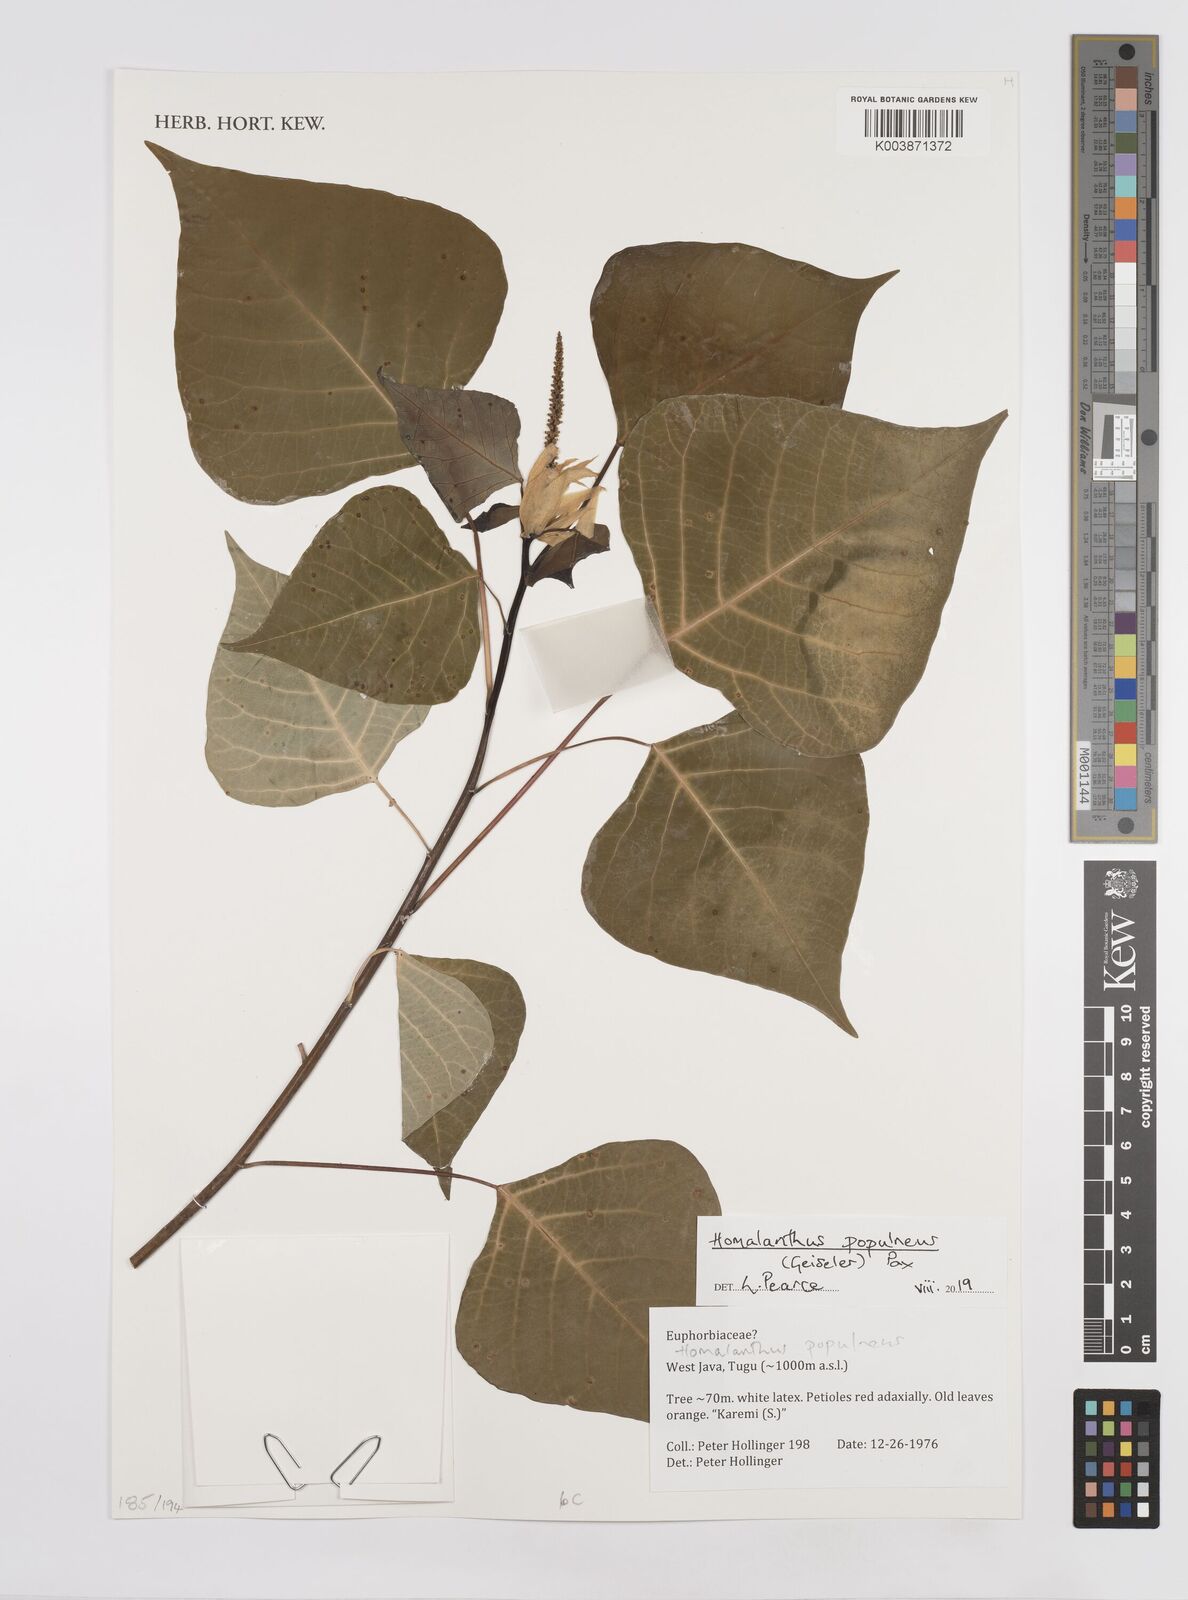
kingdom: Plantae
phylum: Tracheophyta
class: Magnoliopsida
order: Malpighiales
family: Euphorbiaceae
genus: Homalanthus
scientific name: Homalanthus populneus
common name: Spurge
